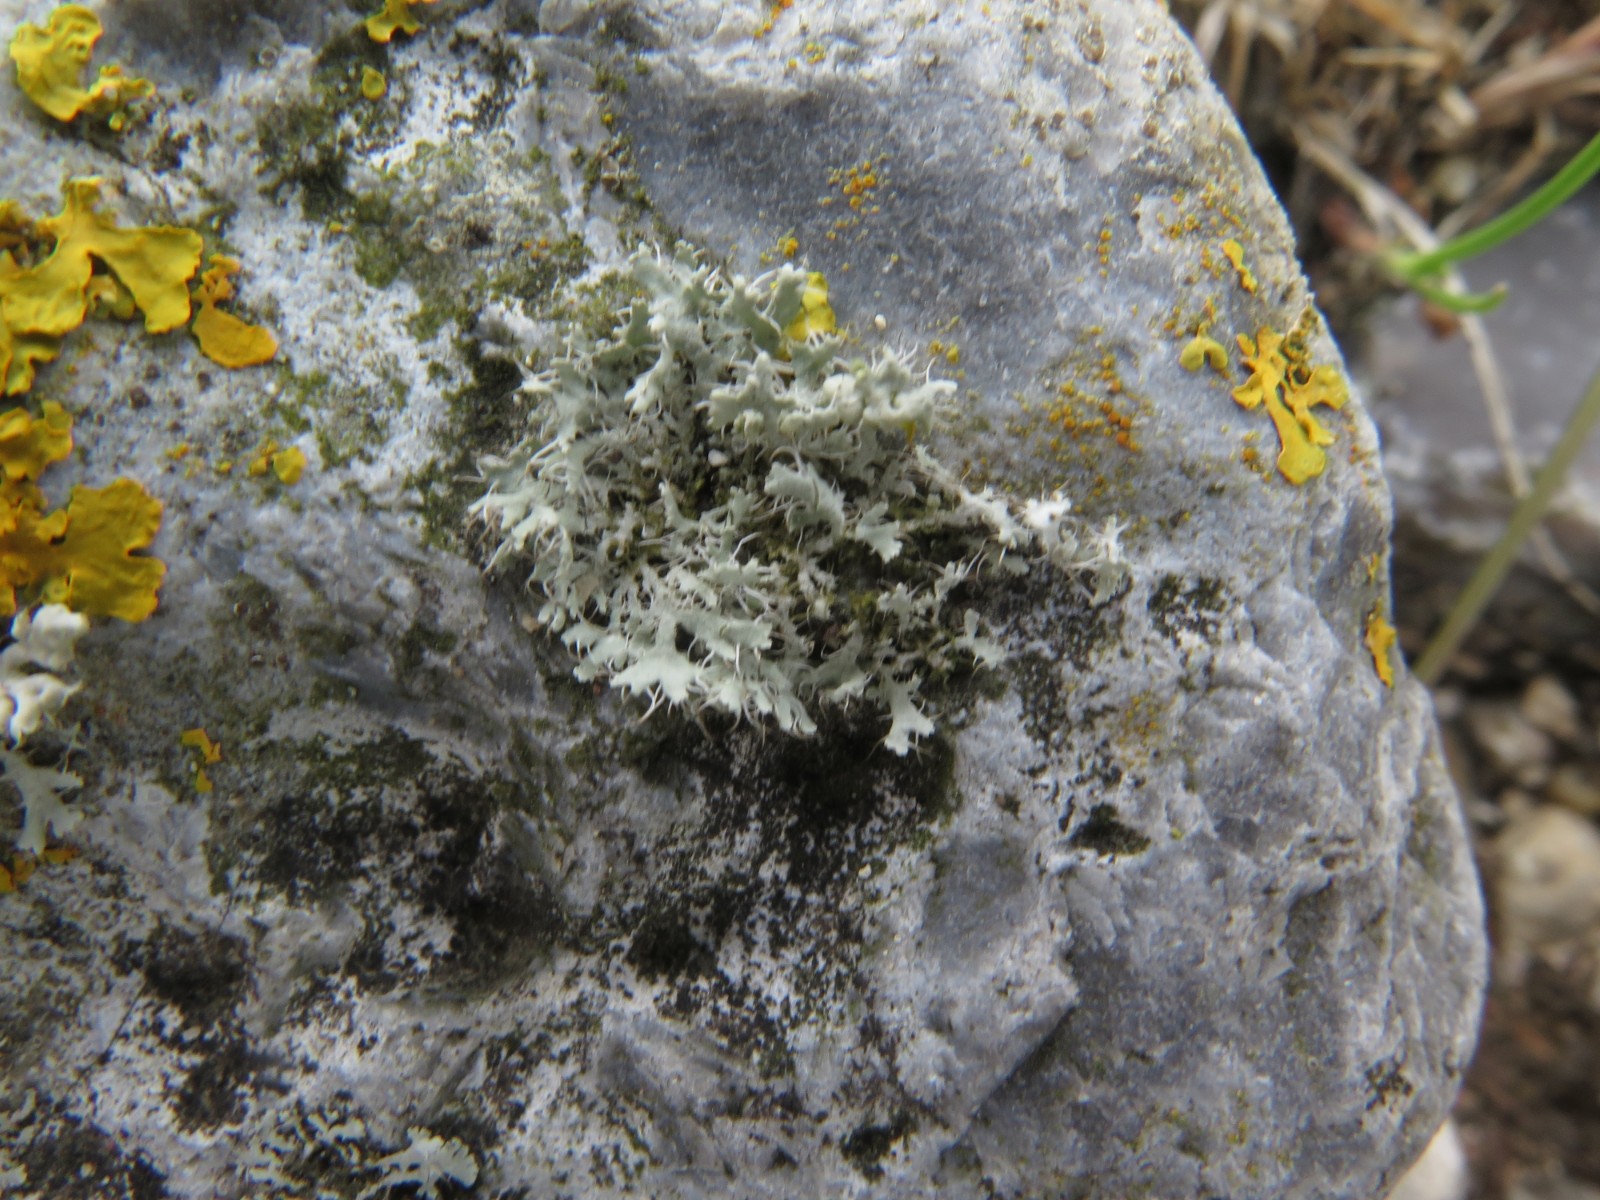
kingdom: Fungi
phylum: Ascomycota
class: Lecanoromycetes
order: Caliciales
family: Physciaceae
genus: Physcia
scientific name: Physcia tenella
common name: spæd rosetlav
